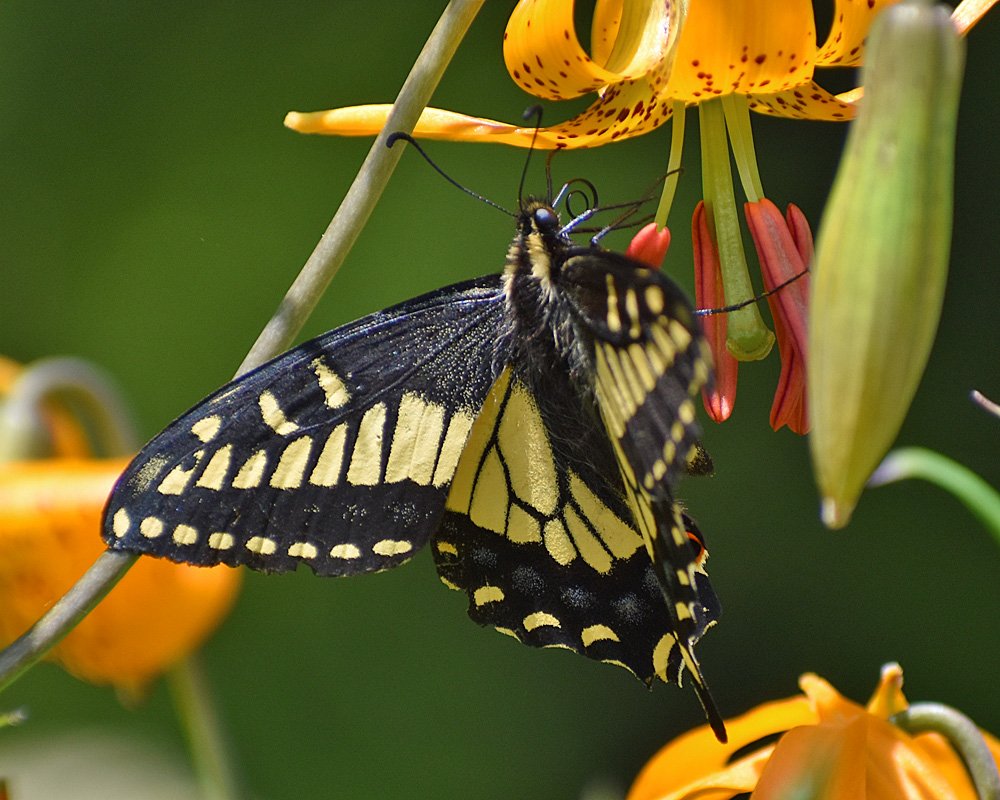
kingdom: Animalia
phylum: Arthropoda
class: Insecta
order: Lepidoptera
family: Papilionidae
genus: Papilio
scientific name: Papilio zelicaon
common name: Anise Swallowtail
